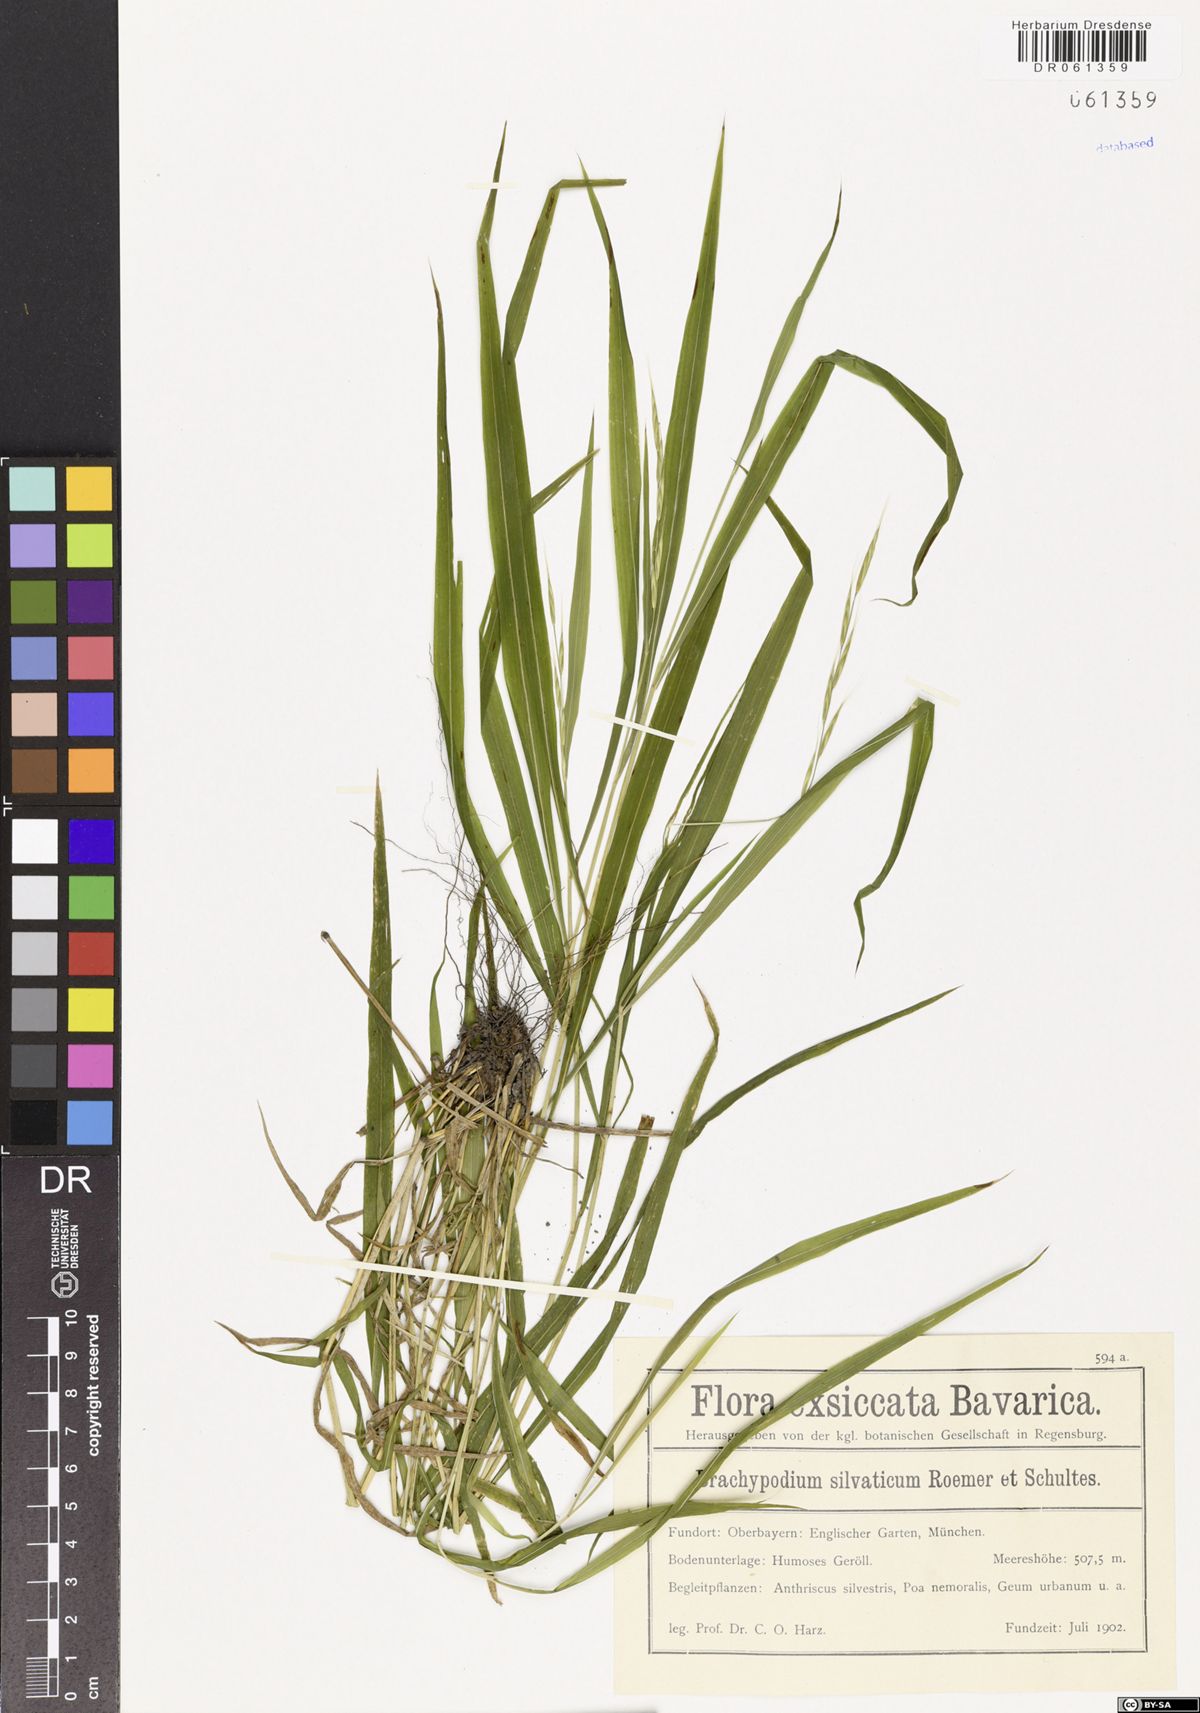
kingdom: Plantae
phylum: Tracheophyta
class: Liliopsida
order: Poales
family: Poaceae
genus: Brachypodium
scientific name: Brachypodium sylvaticum
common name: False-brome
